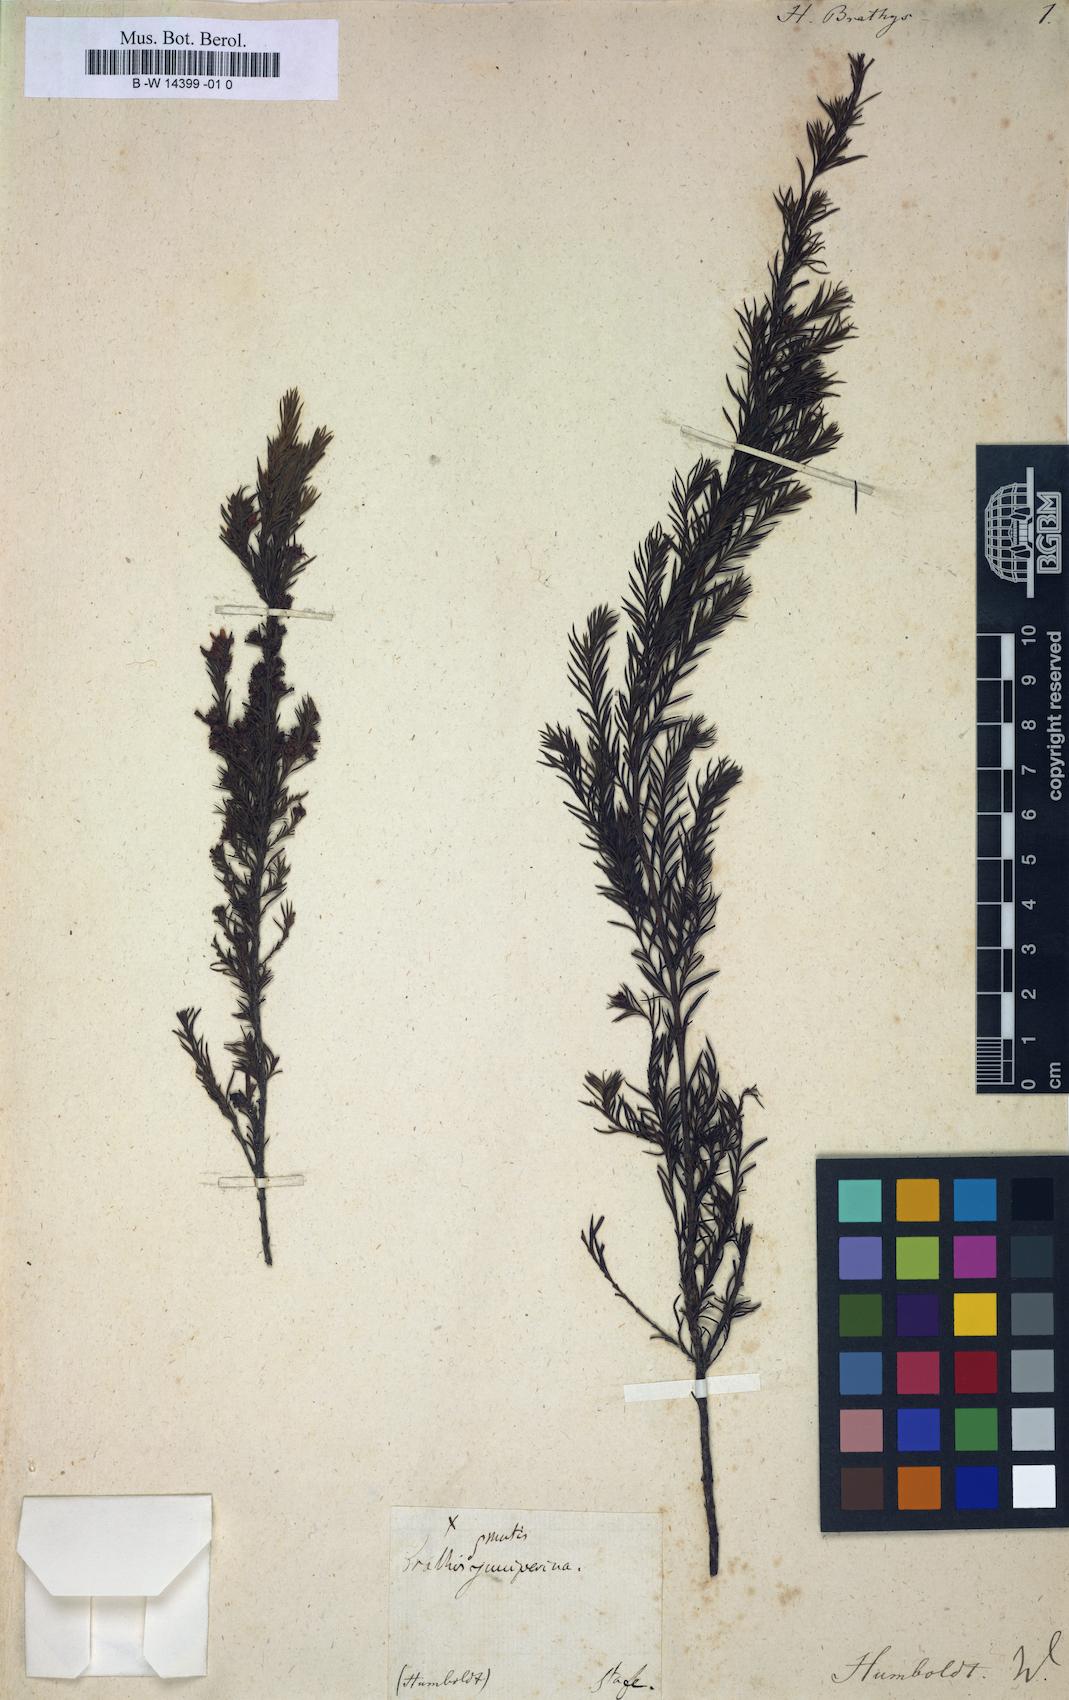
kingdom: Plantae
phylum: Tracheophyta
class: Magnoliopsida
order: Malpighiales
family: Hypericaceae
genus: Hypericum
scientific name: Hypericum juniperinum
